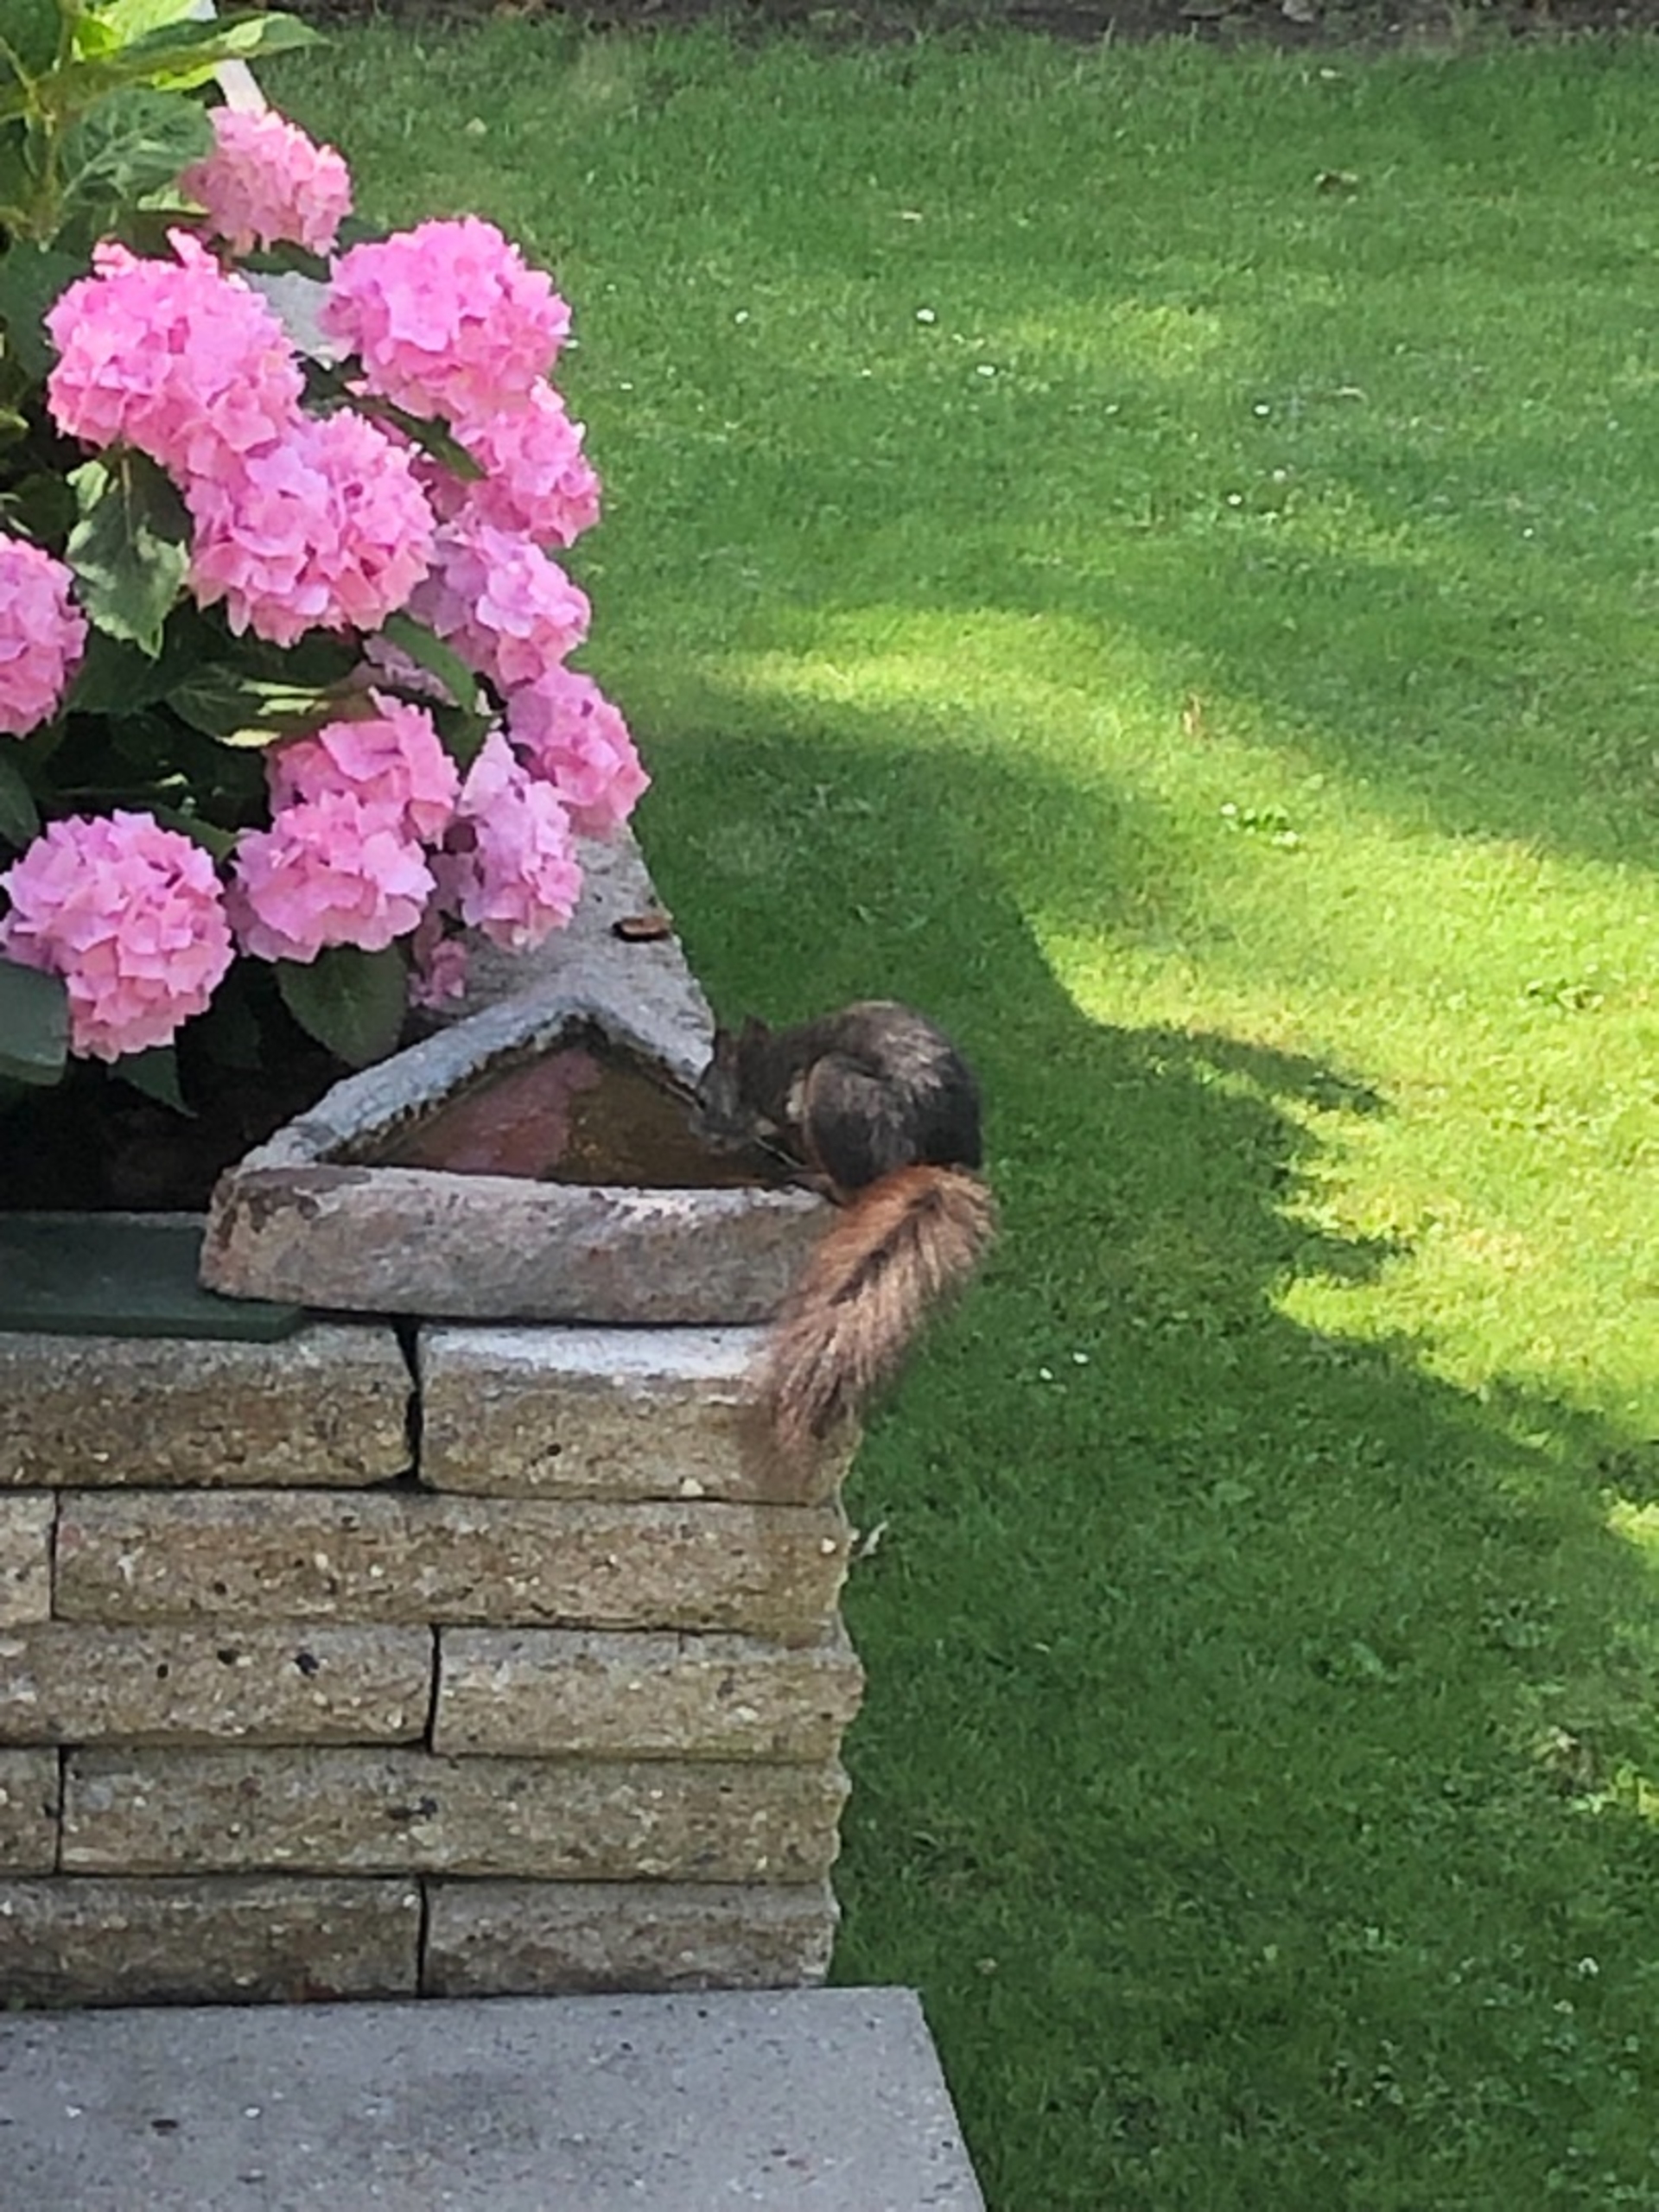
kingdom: Animalia
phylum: Chordata
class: Mammalia
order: Rodentia
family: Sciuridae
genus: Sciurus
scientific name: Sciurus vulgaris
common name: Egern
